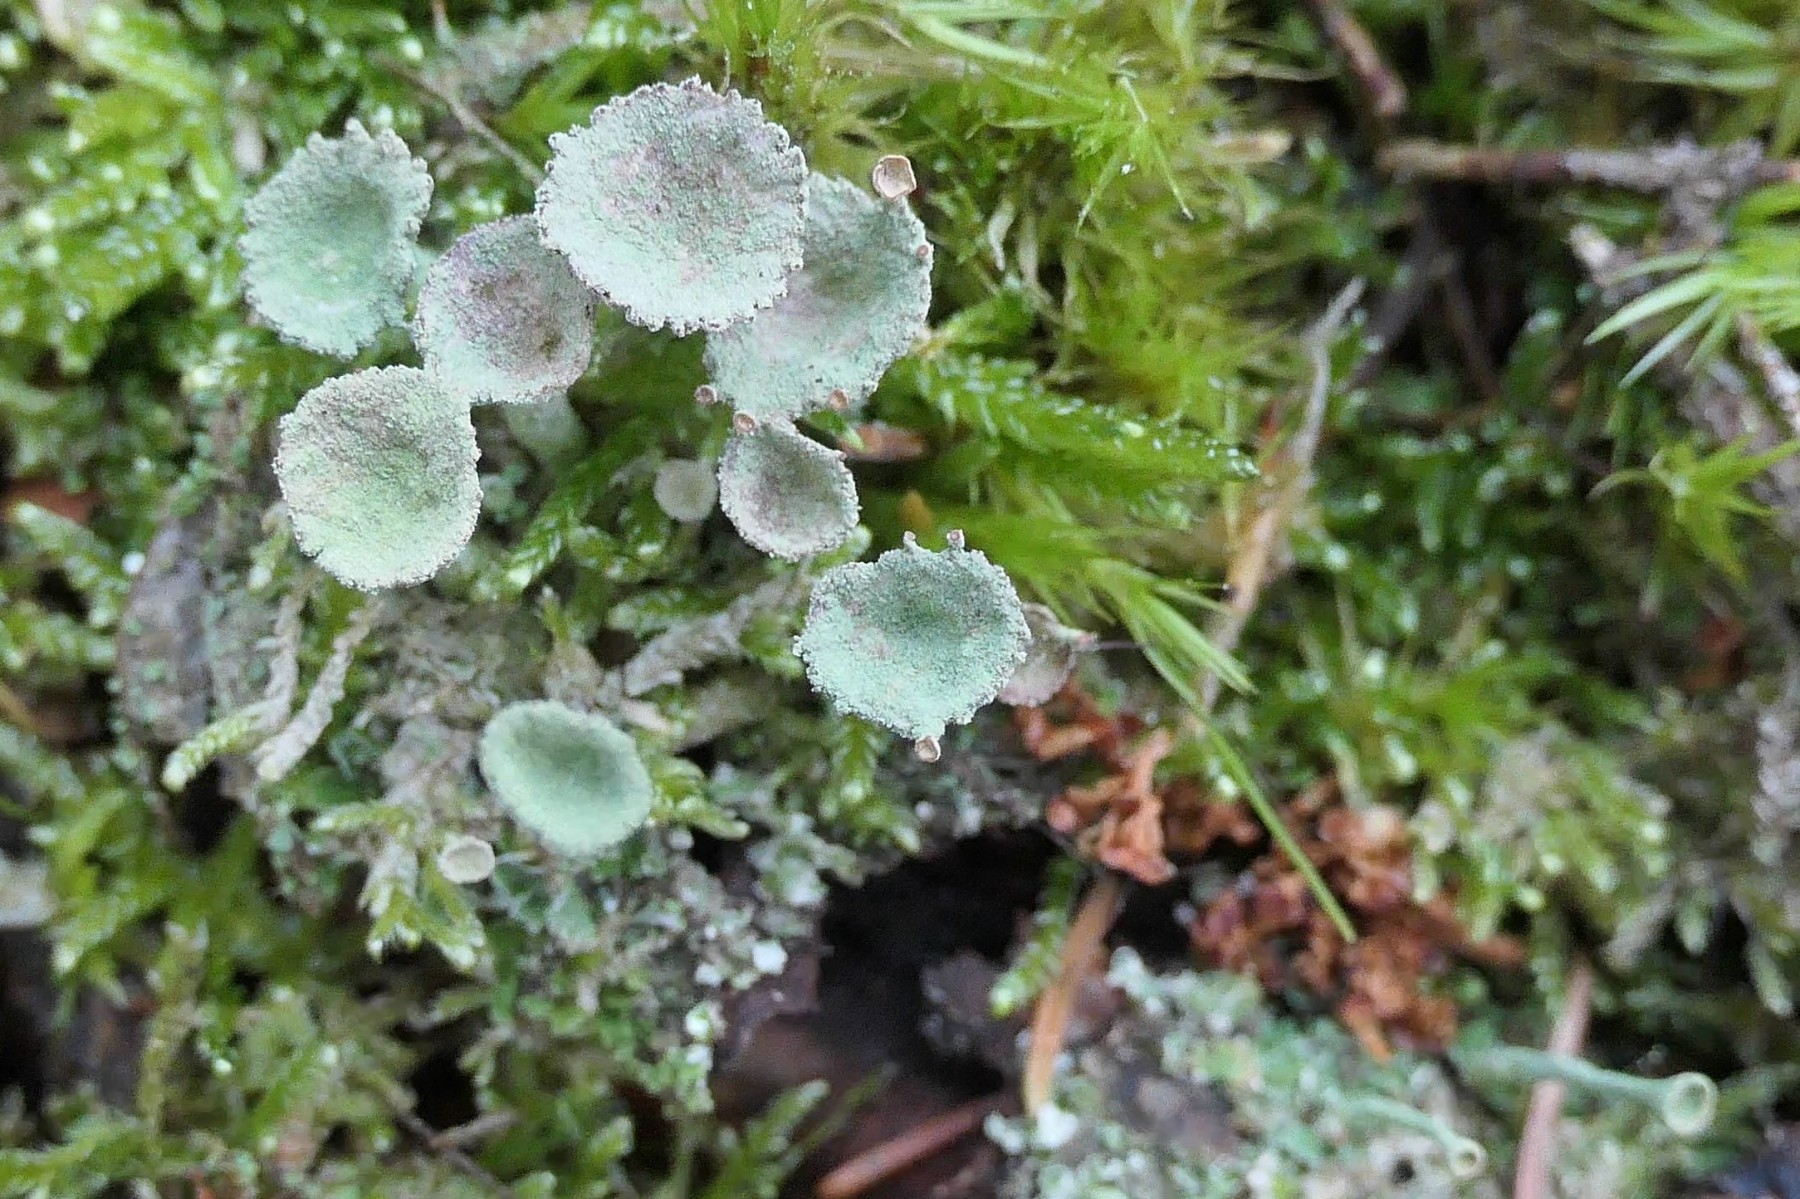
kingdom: Fungi
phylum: Ascomycota
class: Lecanoromycetes
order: Lecanorales
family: Cladoniaceae
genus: Cladonia
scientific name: Cladonia fimbriata
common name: bleggrøn bægerlav
